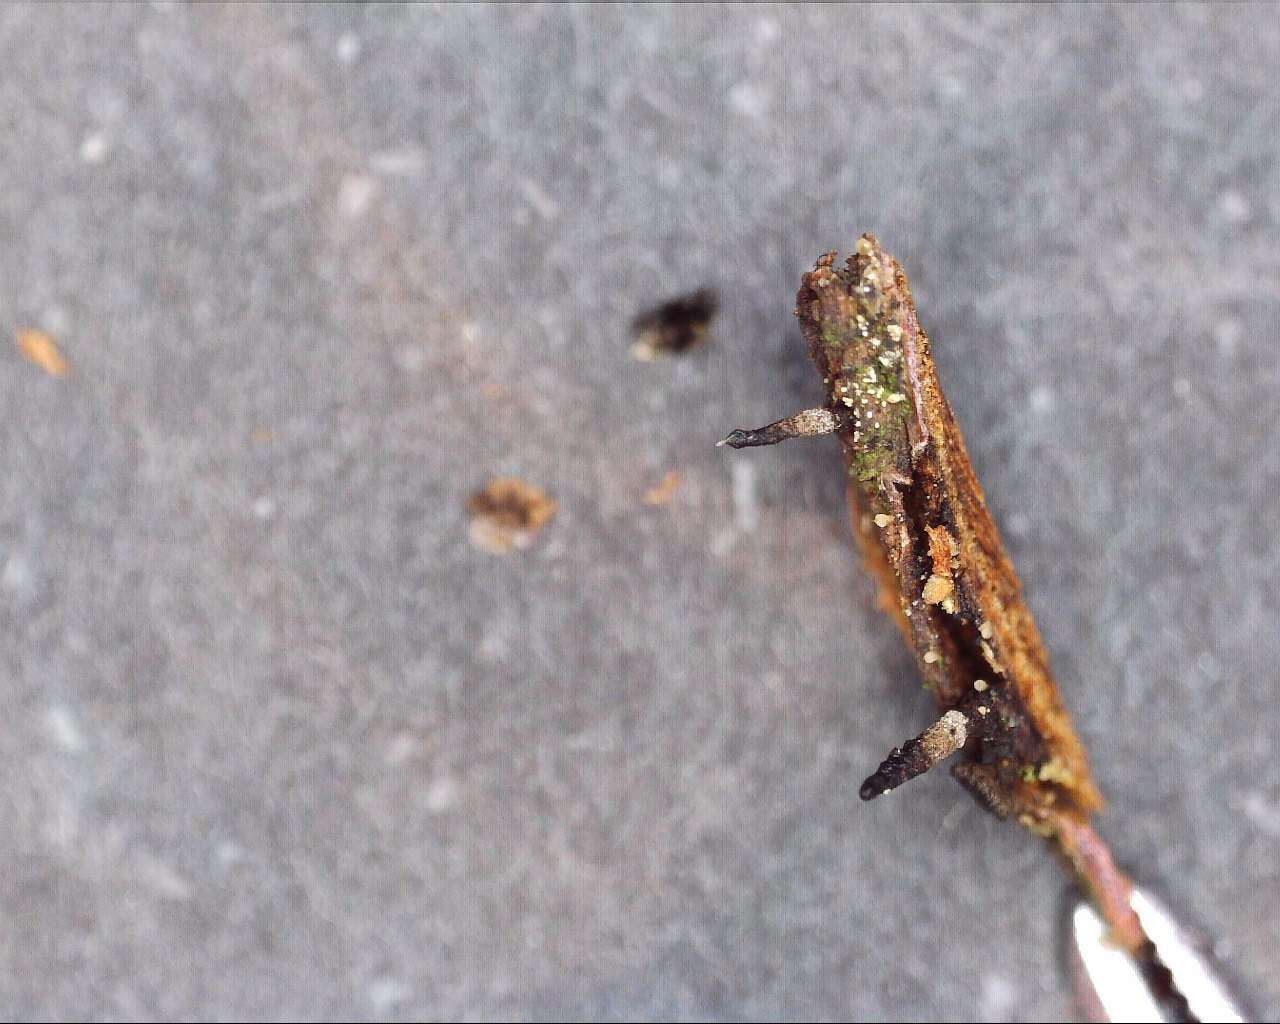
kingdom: Fungi
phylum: Ascomycota
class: Leotiomycetes
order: Helotiales
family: Dermateaceae
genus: Dermea
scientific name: Dermea padi
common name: stenfrugt-klyngeskive
